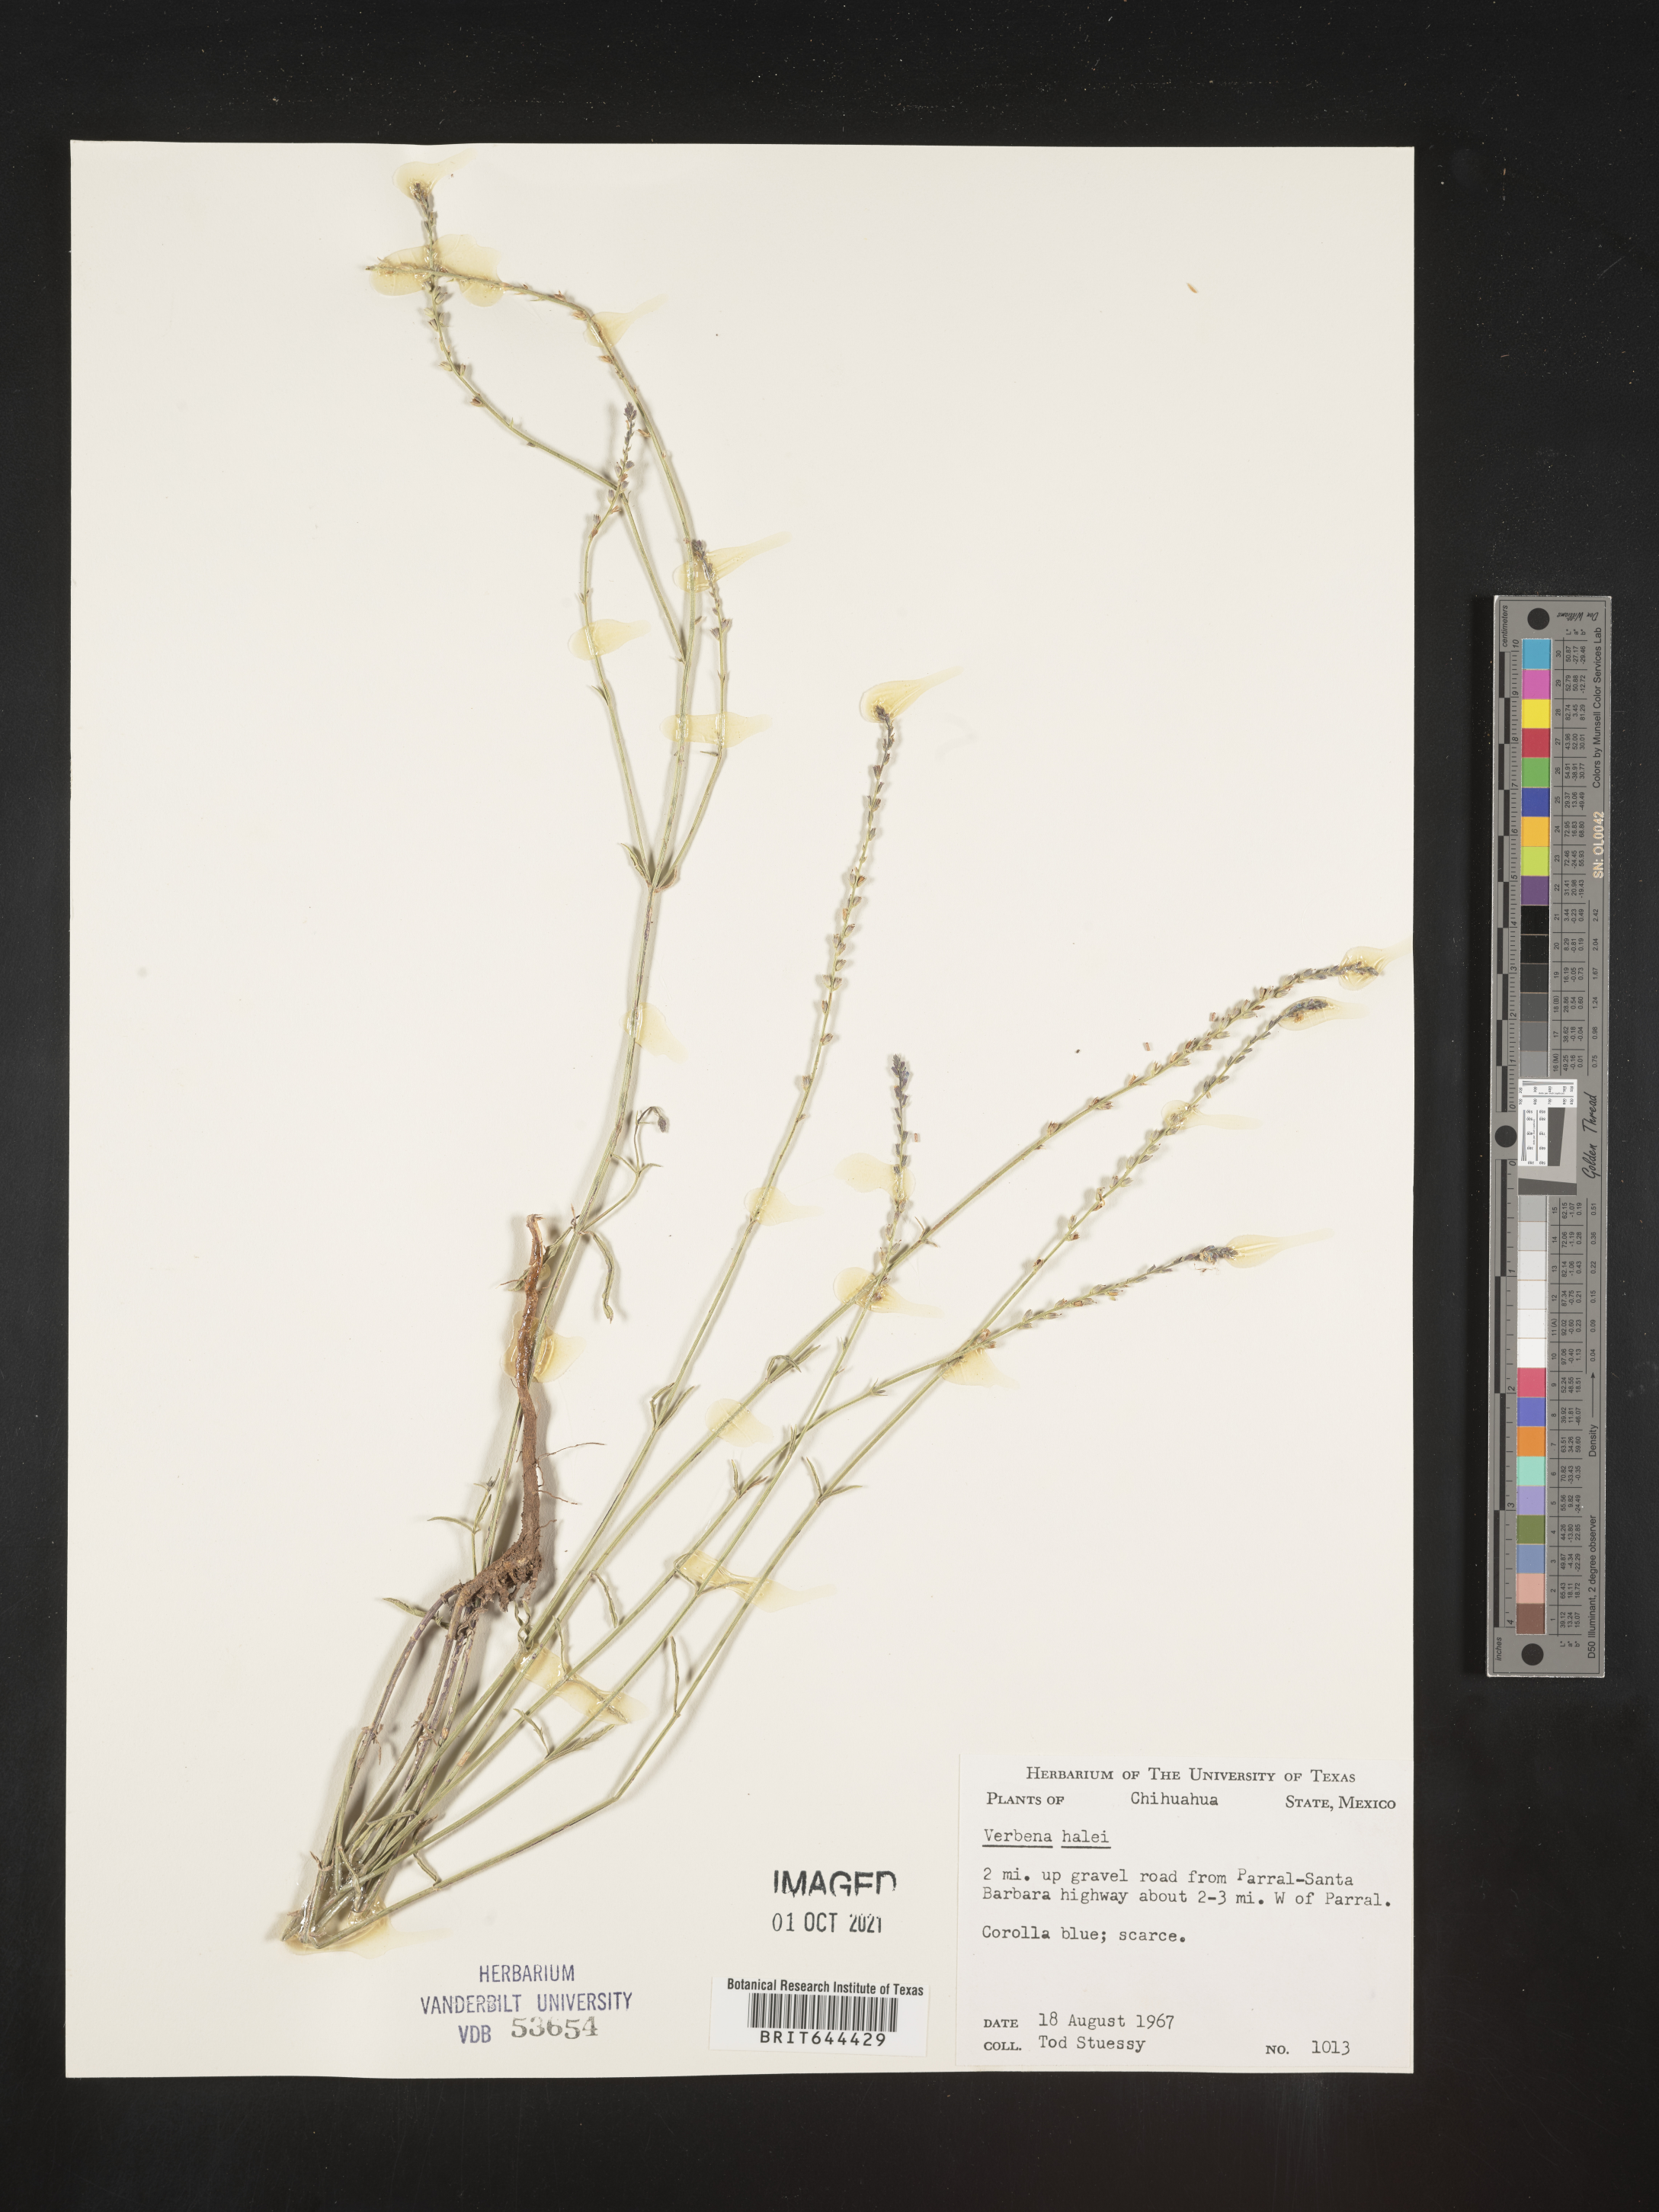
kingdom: Plantae
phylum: Tracheophyta
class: Magnoliopsida
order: Lamiales
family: Verbenaceae
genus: Verbena
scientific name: Verbena
